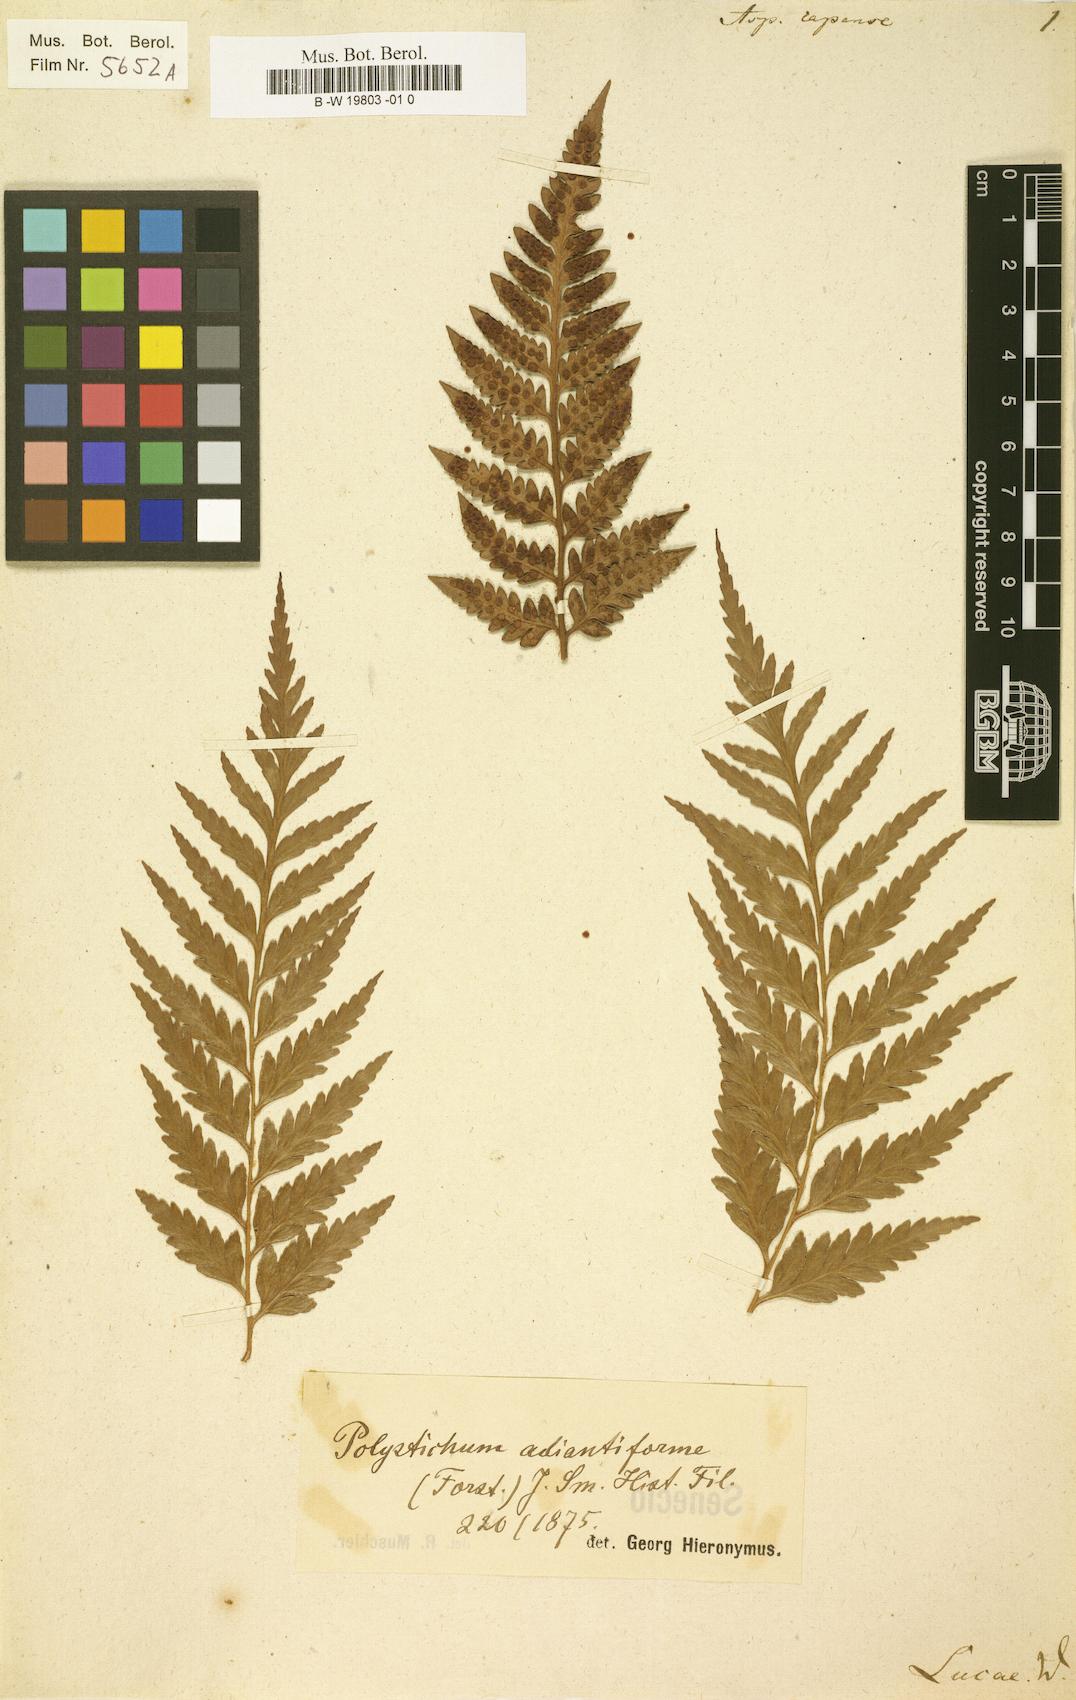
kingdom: Plantae
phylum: Tracheophyta
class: Polypodiopsida
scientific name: Polypodiopsida
